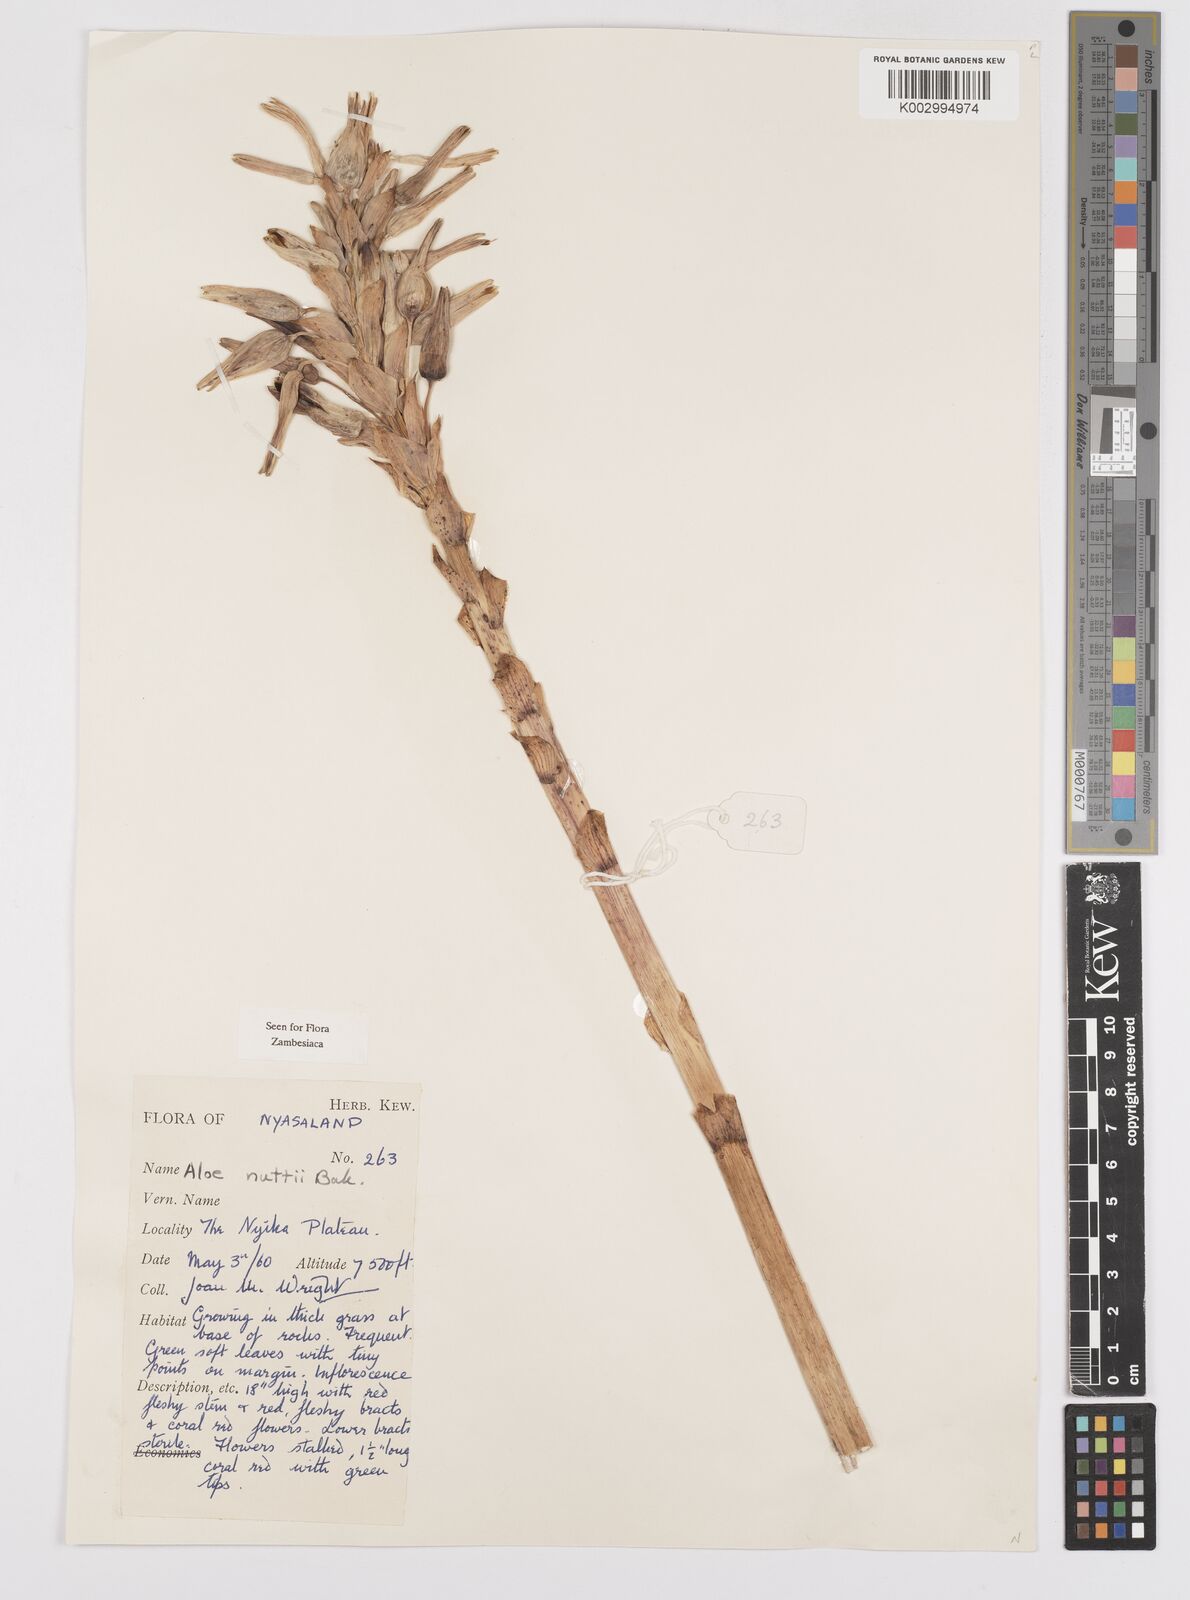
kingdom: Plantae
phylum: Tracheophyta
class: Liliopsida
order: Asparagales
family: Asphodelaceae
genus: Aloe
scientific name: Aloe nuttii
